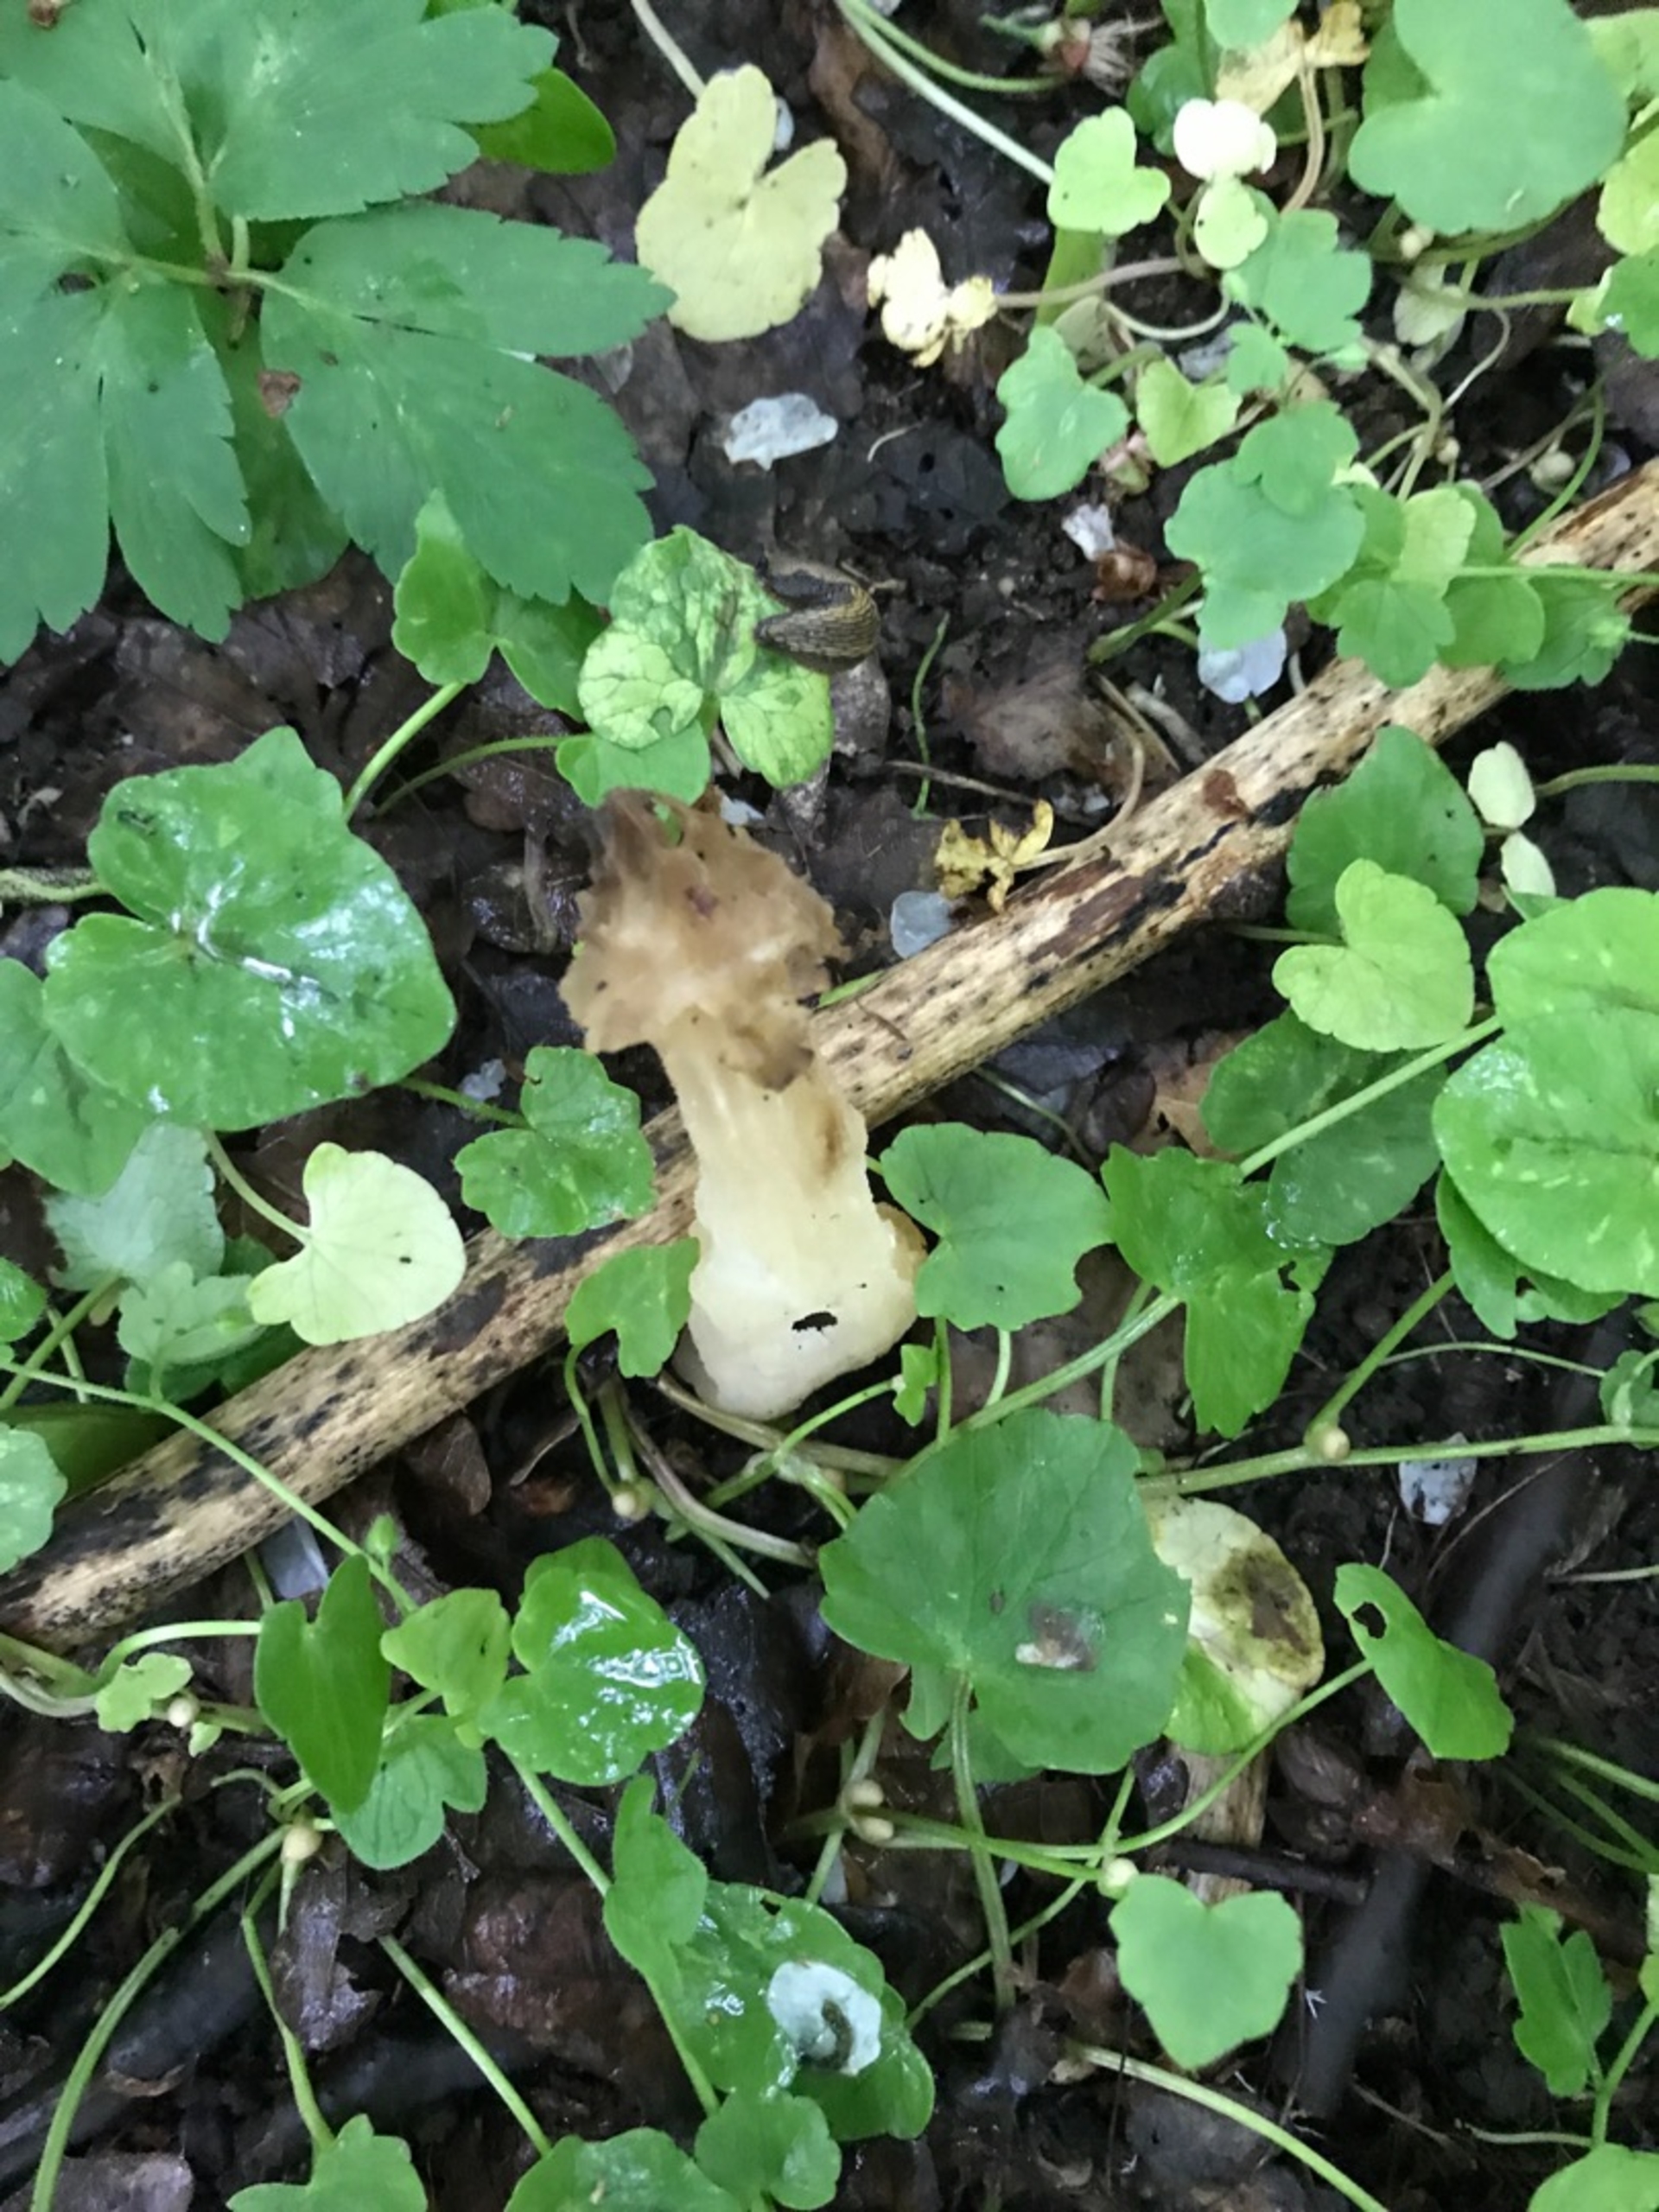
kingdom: Fungi
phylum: Ascomycota
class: Pezizomycetes
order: Pezizales
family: Morchellaceae
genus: Morchella
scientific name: Morchella semilibera
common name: Hætte-morkel
